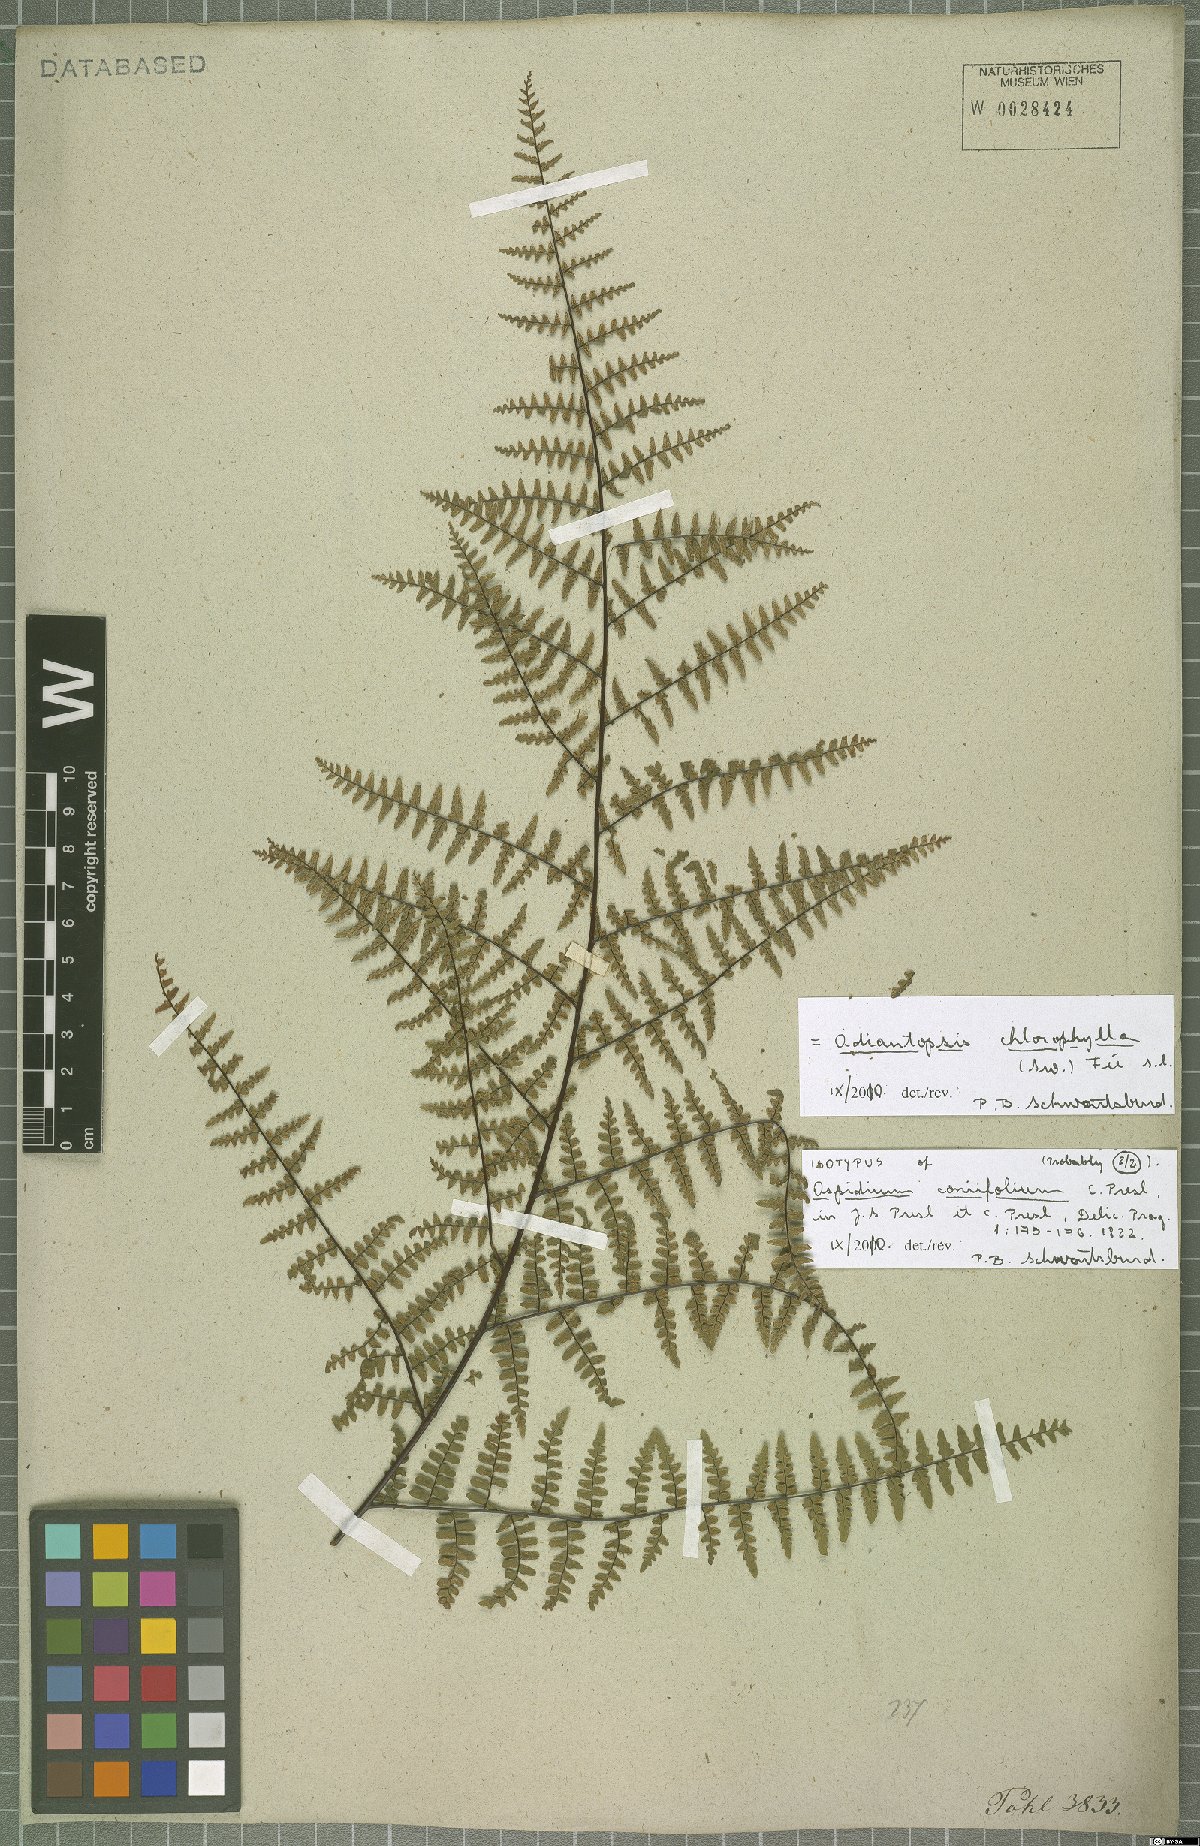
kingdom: Plantae
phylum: Tracheophyta
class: Polypodiopsida
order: Polypodiales
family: Pteridaceae
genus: Adiantopsis
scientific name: Adiantopsis chlorophylla
